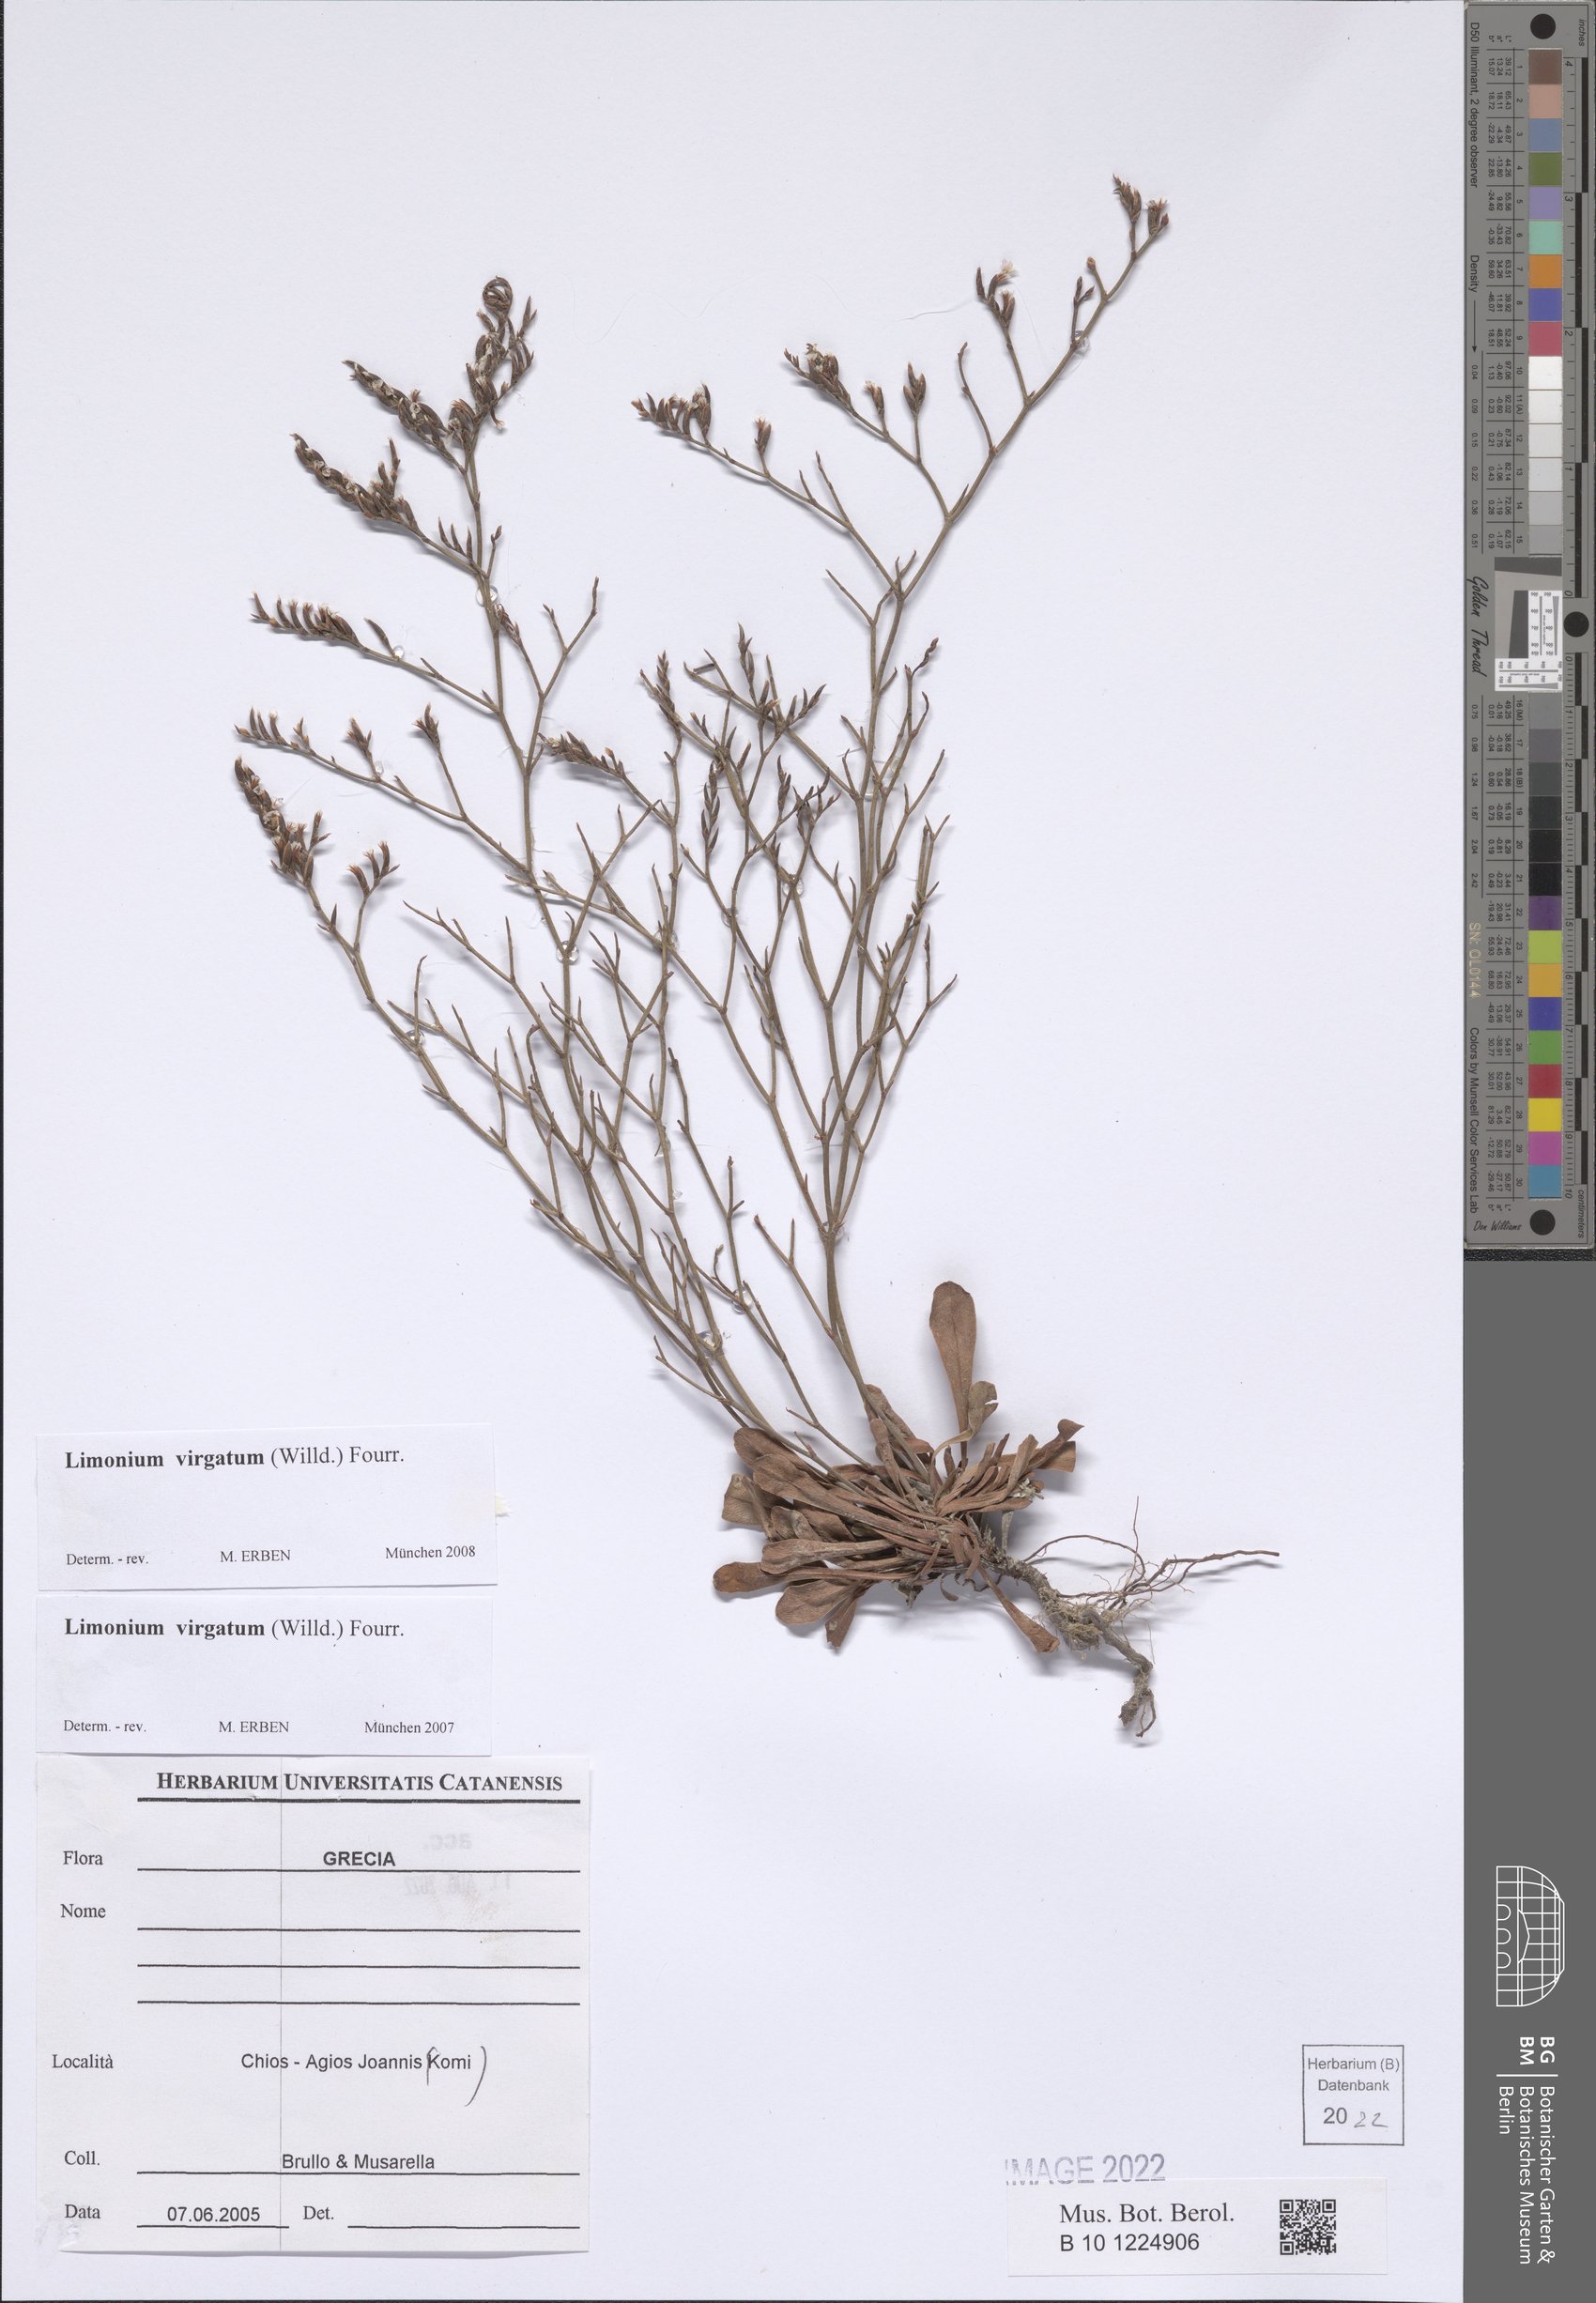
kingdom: Plantae
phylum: Tracheophyta
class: Magnoliopsida
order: Caryophyllales
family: Plumbaginaceae
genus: Limonium
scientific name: Limonium virgatum
